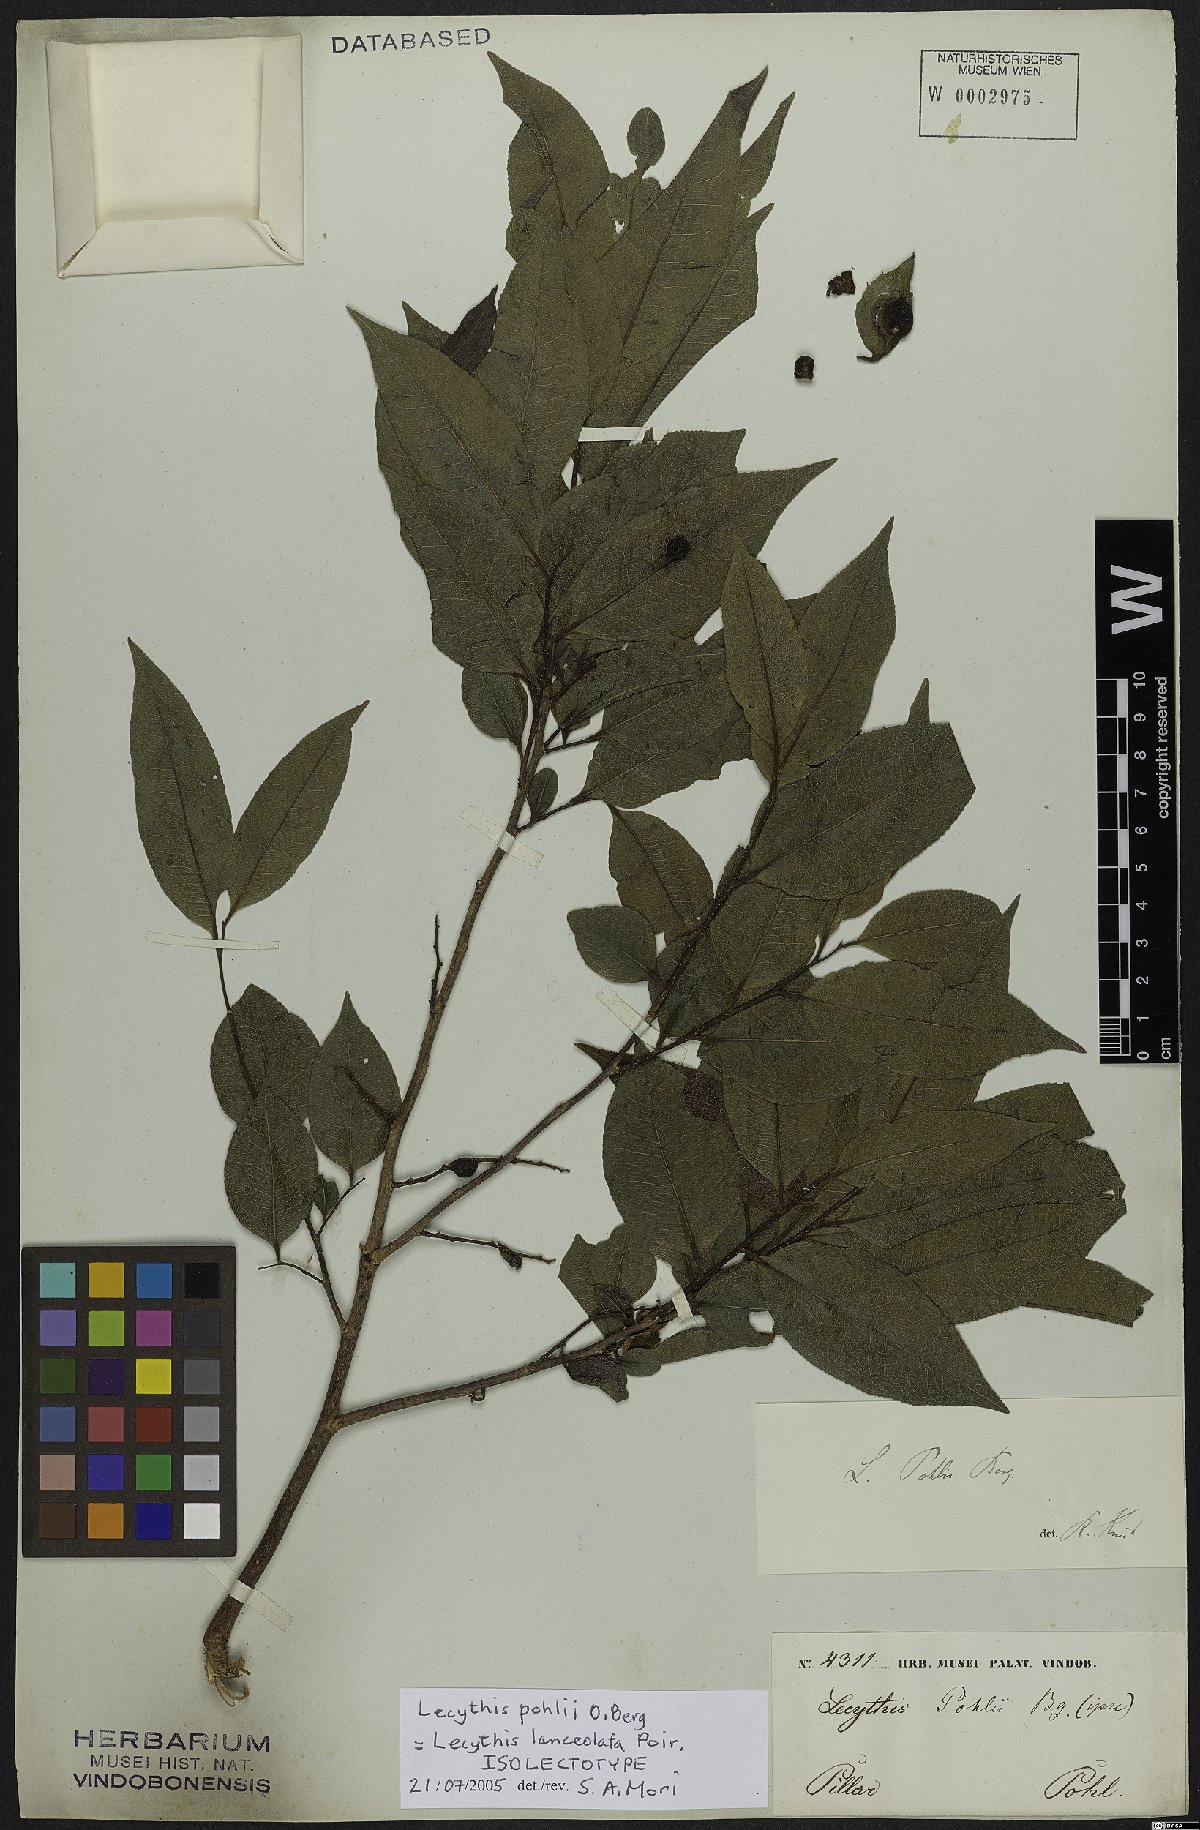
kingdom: Plantae
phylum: Tracheophyta
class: Magnoliopsida
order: Ericales
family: Lecythidaceae
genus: Lecythis
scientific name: Lecythis lanceolata
